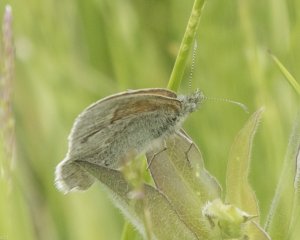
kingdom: Animalia
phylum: Arthropoda
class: Insecta
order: Lepidoptera
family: Nymphalidae
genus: Coenonympha
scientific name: Coenonympha tullia
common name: Large Heath
